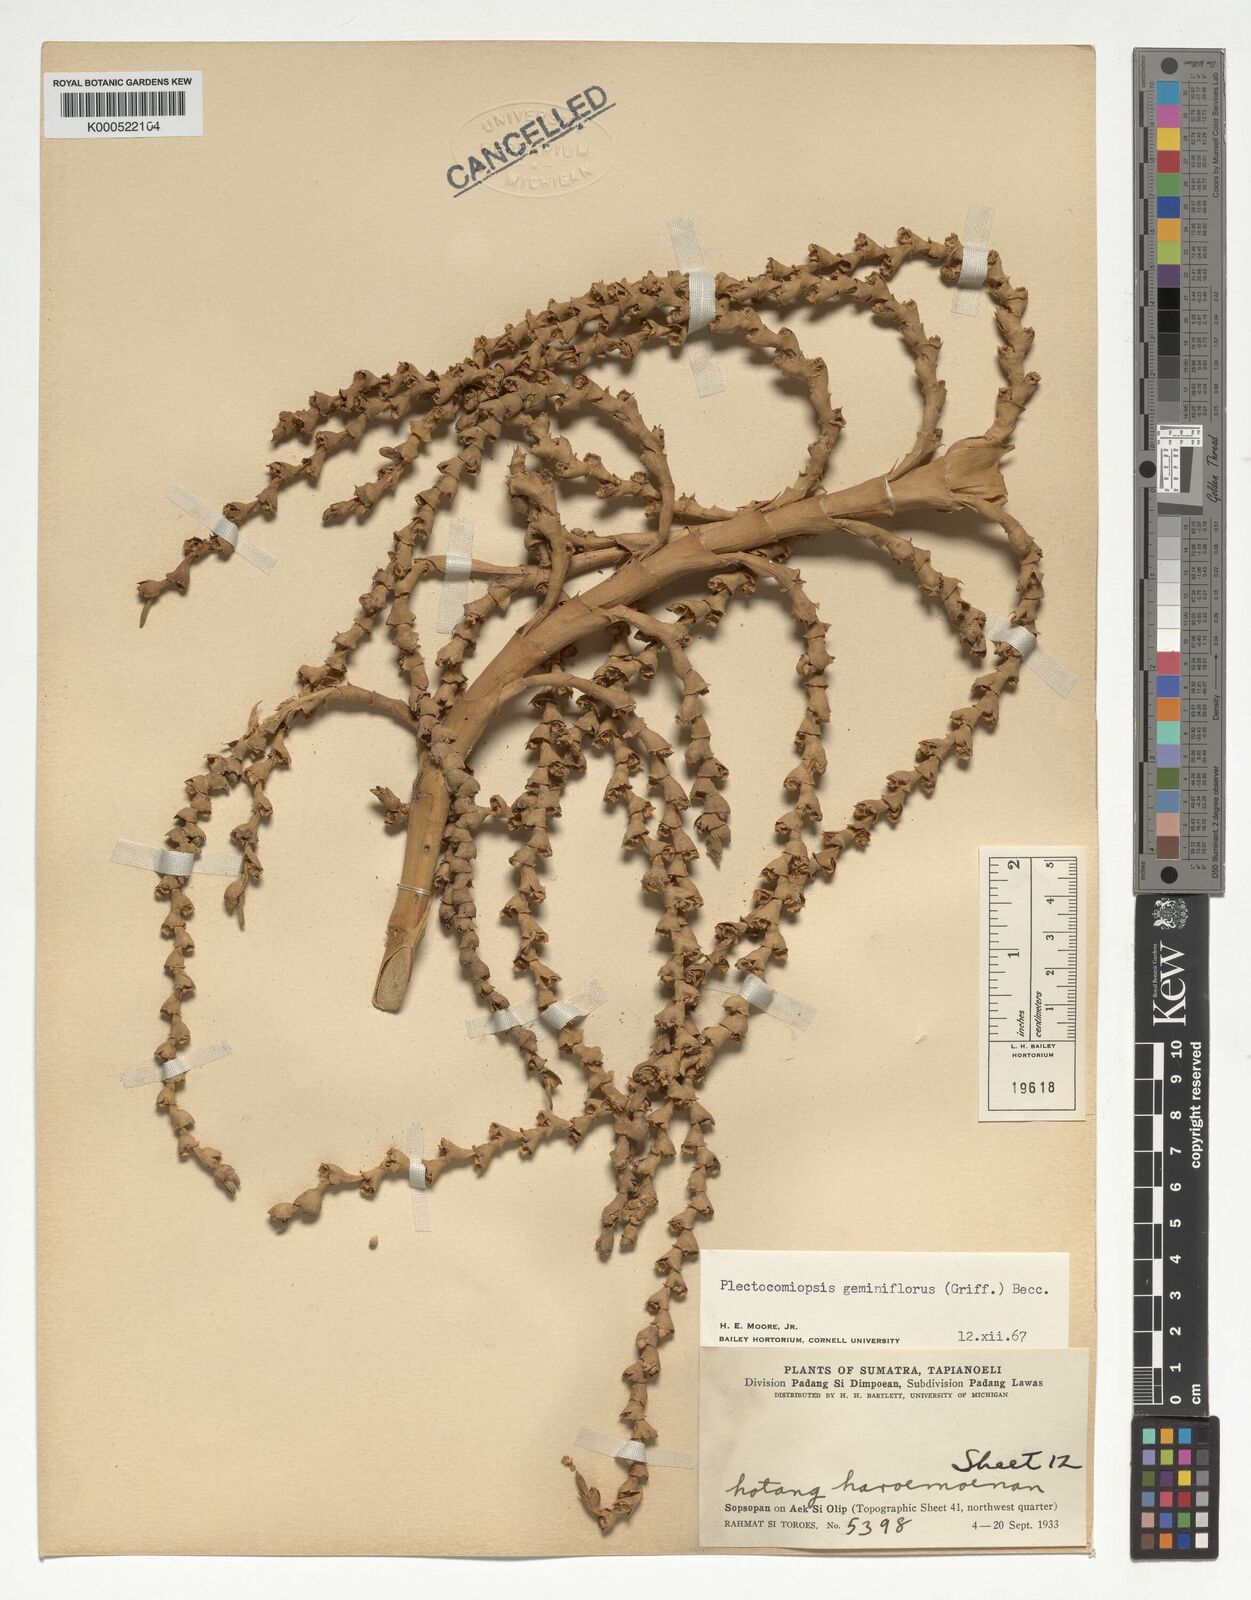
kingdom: Plantae
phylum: Tracheophyta
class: Liliopsida
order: Arecales
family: Arecaceae
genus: Plectocomiopsis
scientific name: Plectocomiopsis geminiflora
